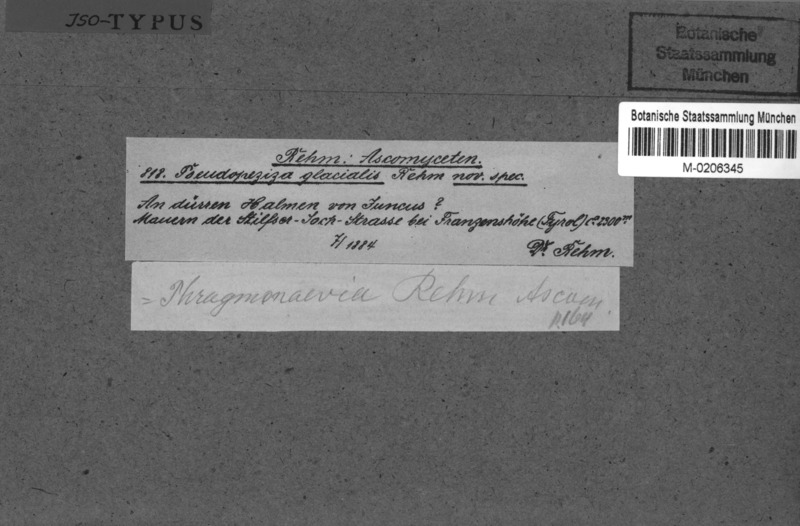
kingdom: Fungi
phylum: Ascomycota
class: Leotiomycetes
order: Helotiales
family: Calloriaceae
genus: Diplonaevia
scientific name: Diplonaevia emergens
